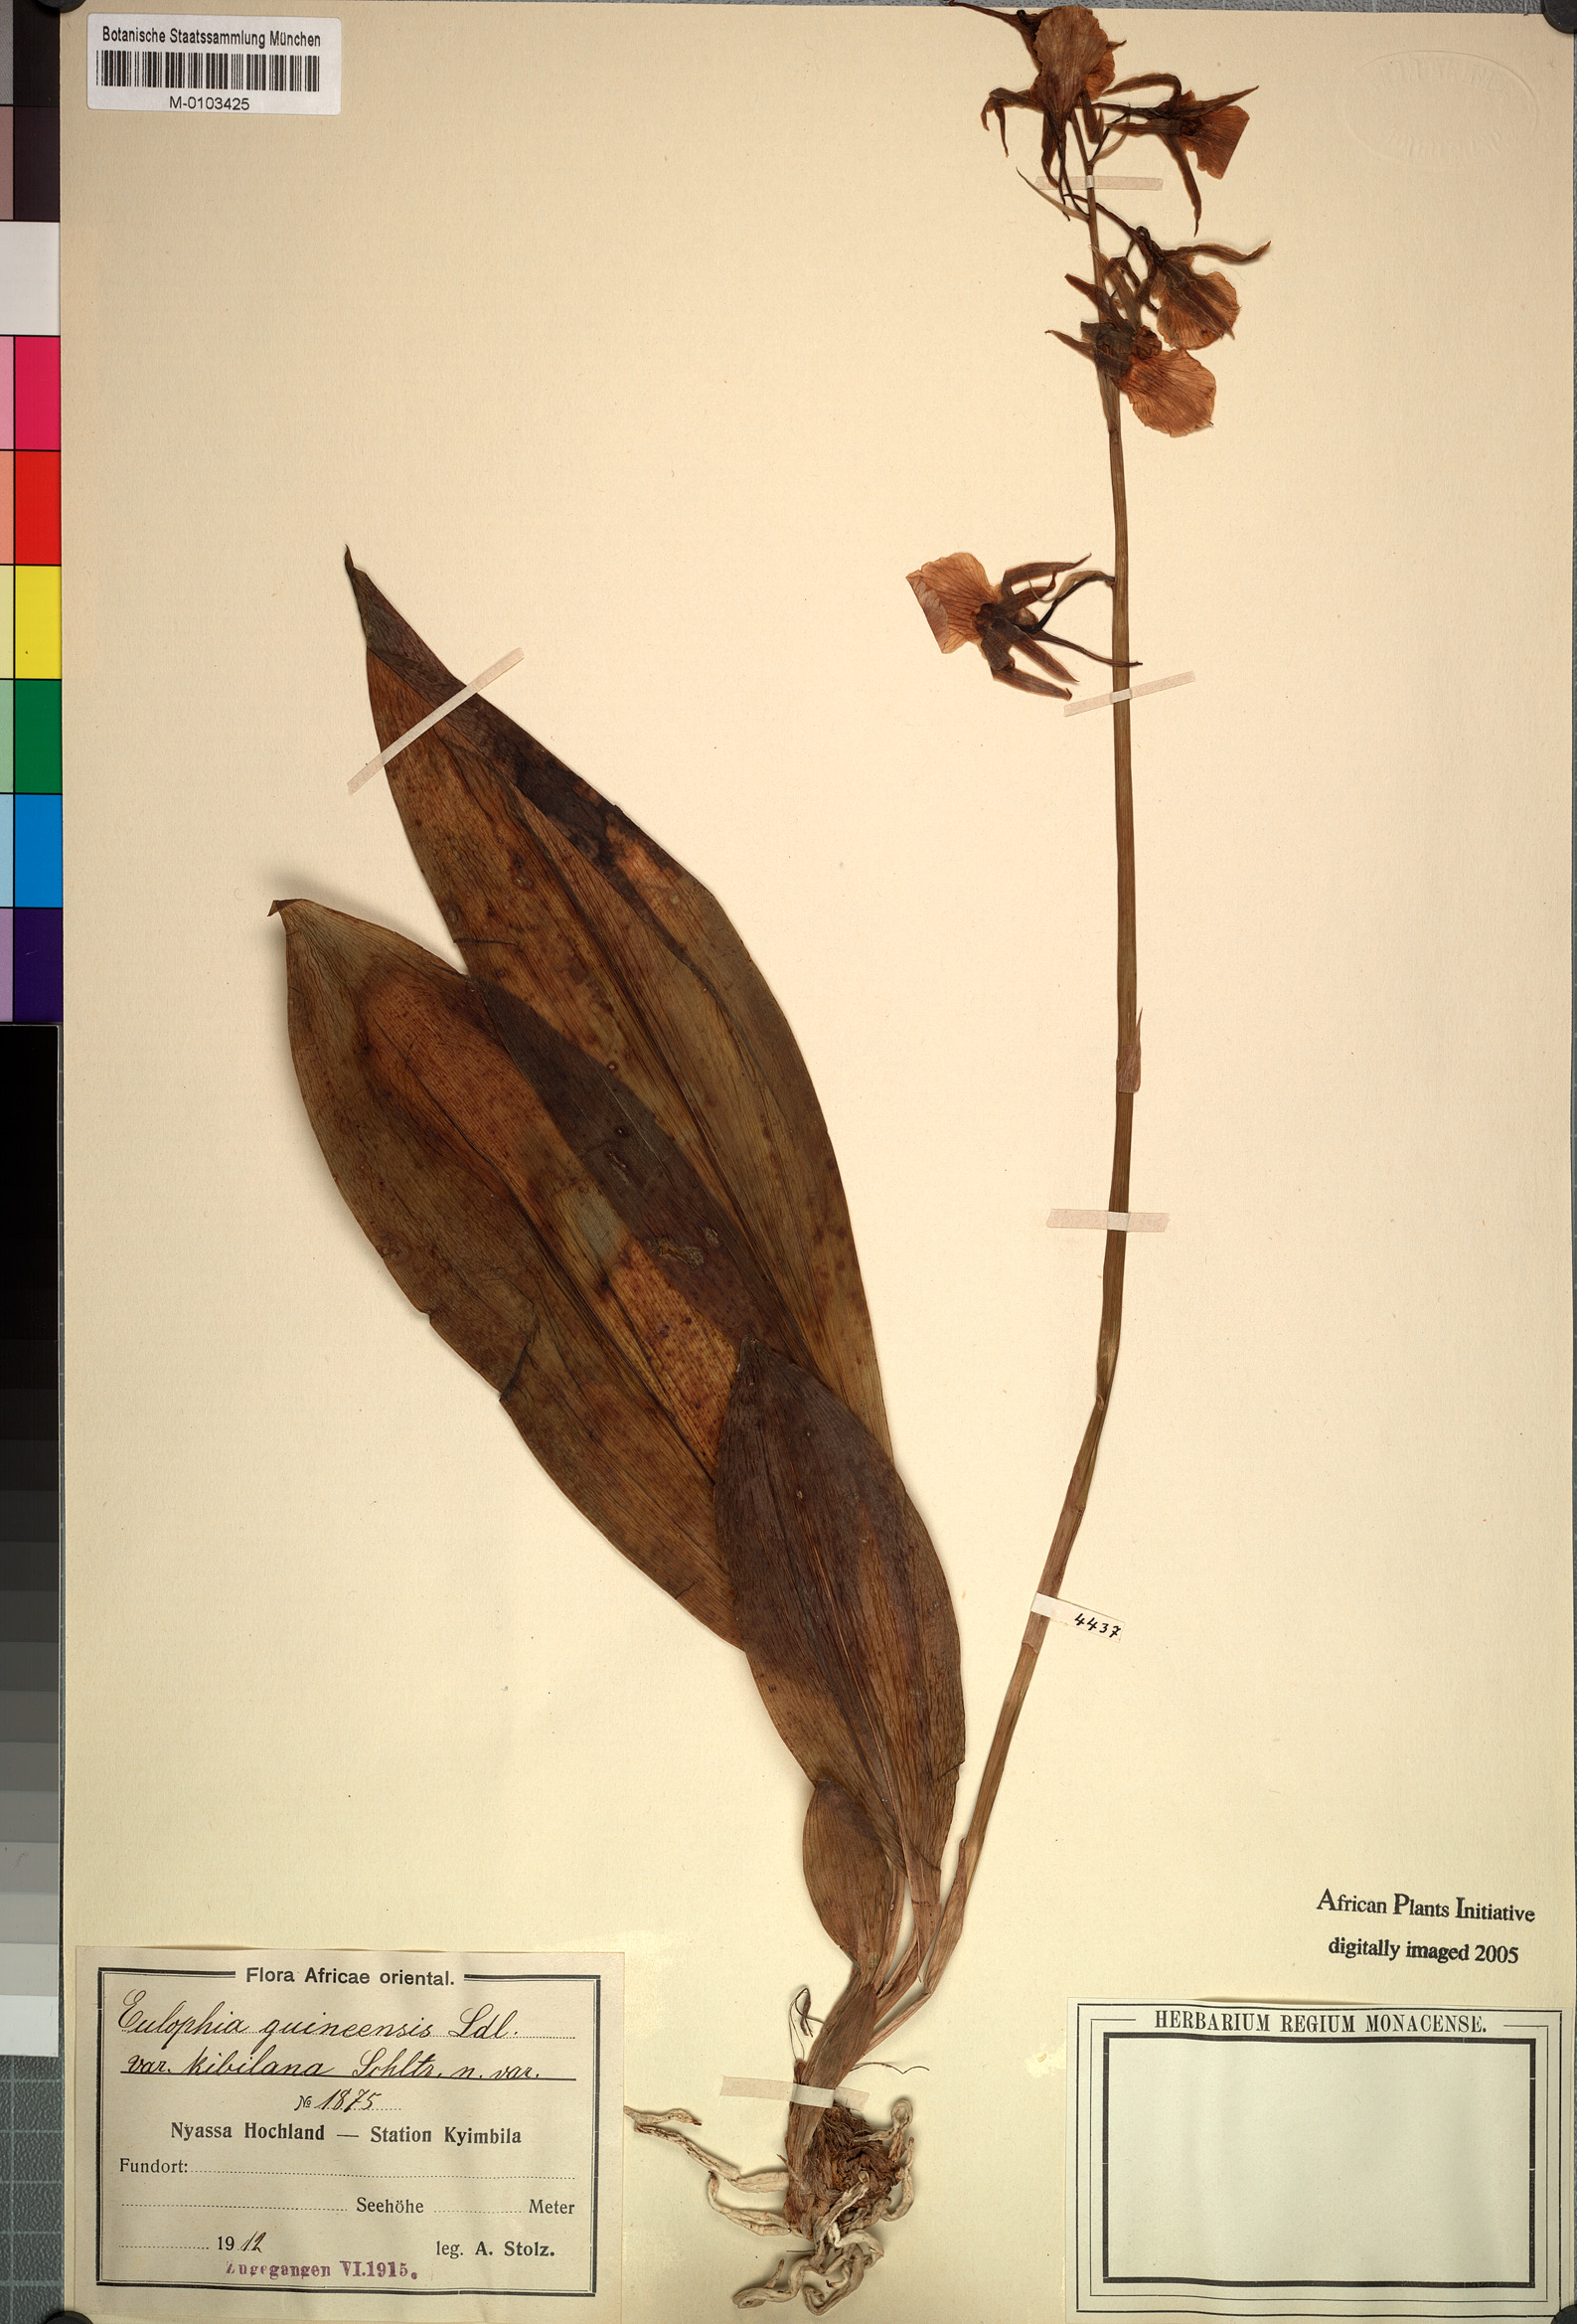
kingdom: Plantae
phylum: Tracheophyta
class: Liliopsida
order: Asparagales
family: Orchidaceae
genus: Eulophia
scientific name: Eulophia guineensis
